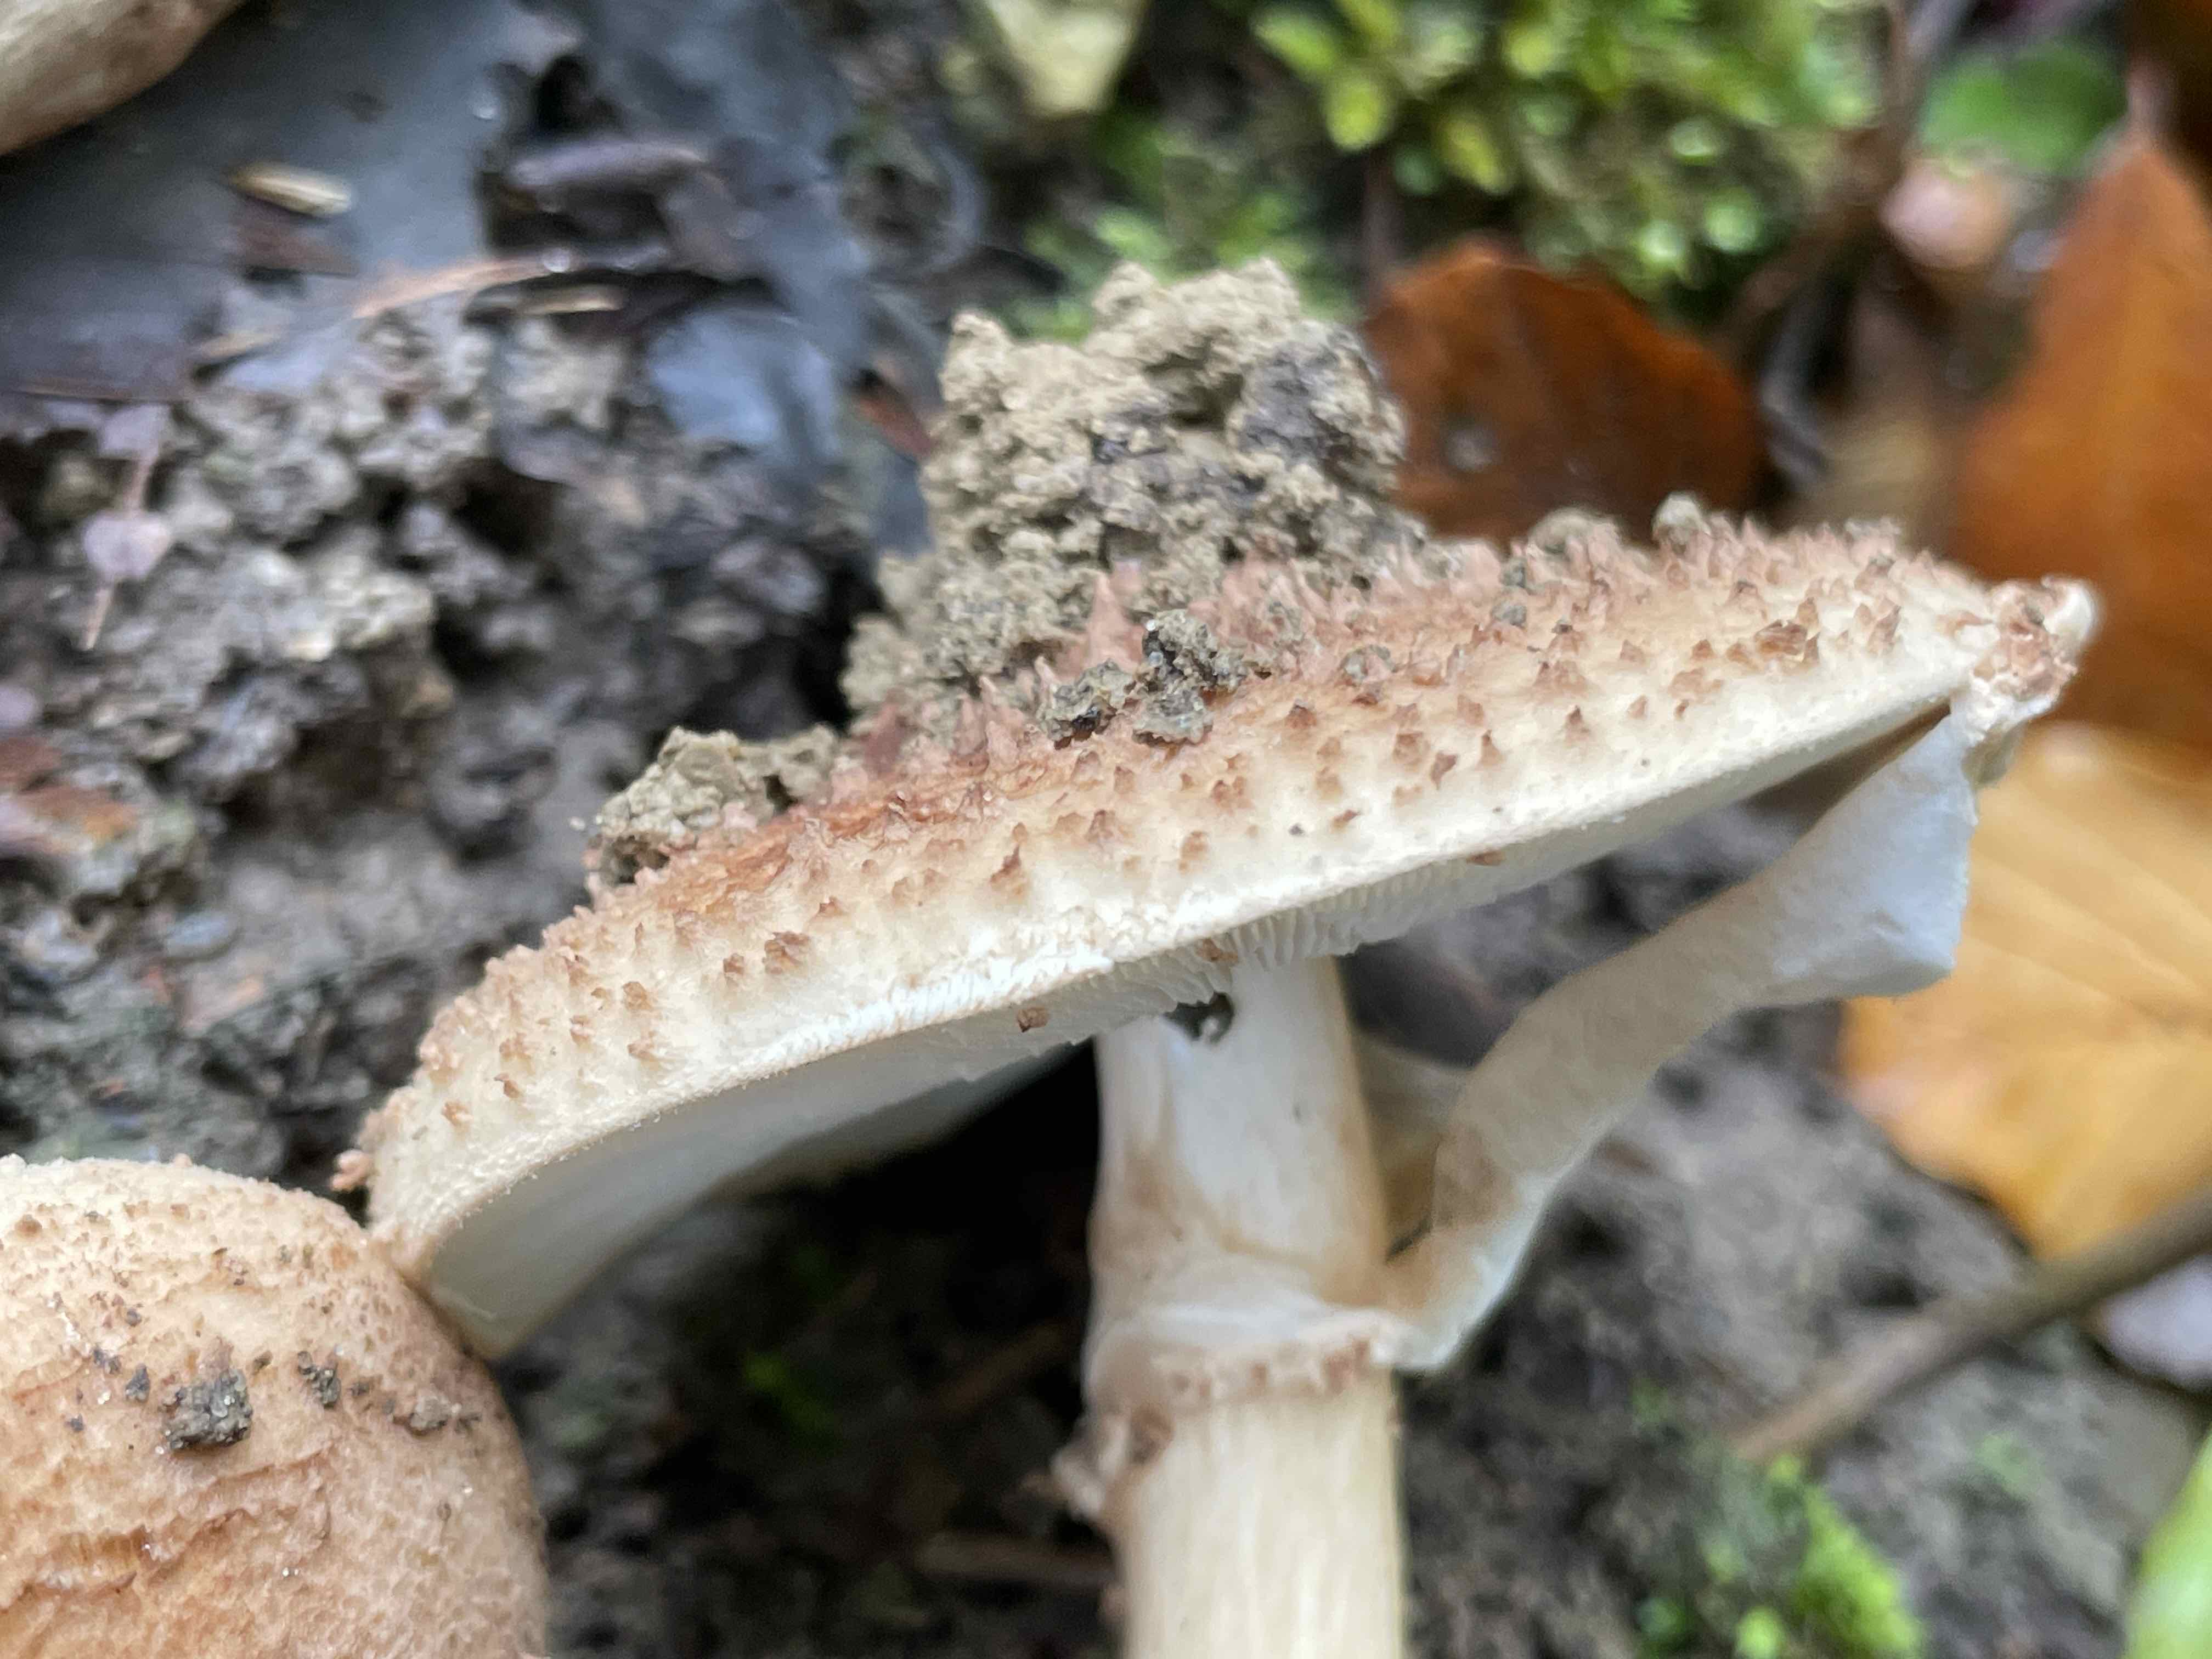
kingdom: Fungi
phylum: Basidiomycota
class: Agaricomycetes
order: Agaricales
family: Agaricaceae
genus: Echinoderma
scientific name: Echinoderma asperum
